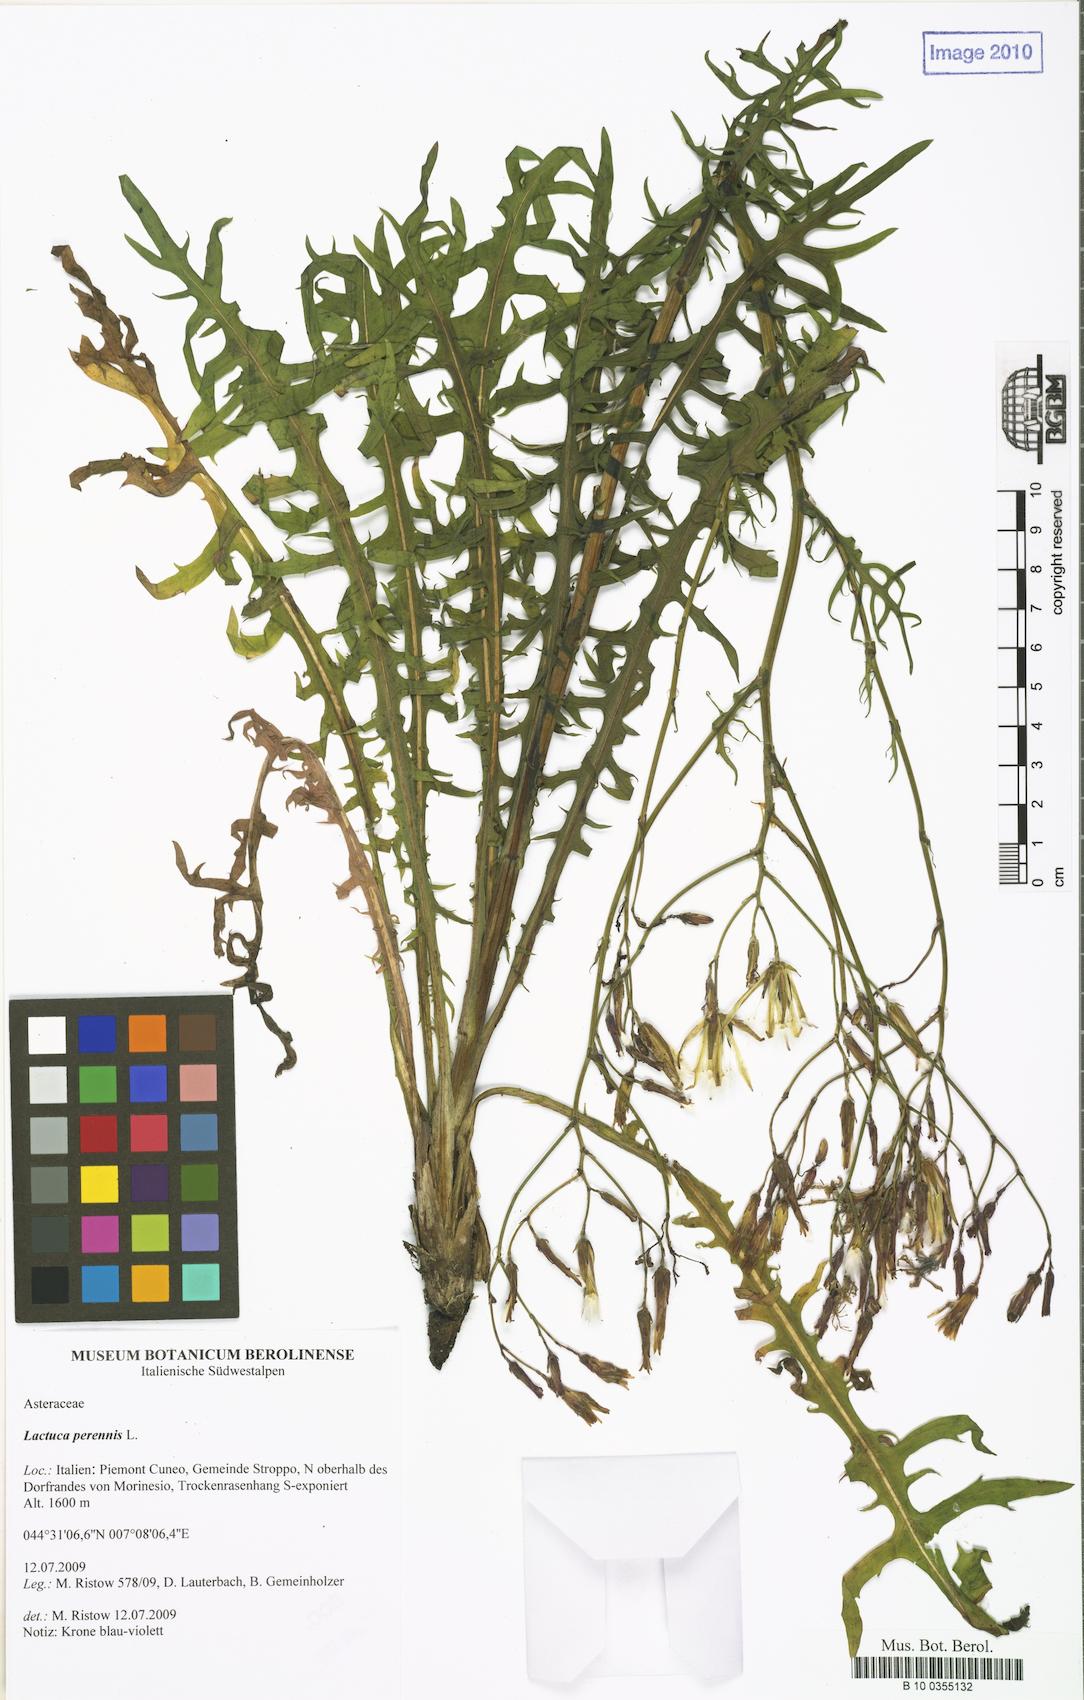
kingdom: Plantae
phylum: Tracheophyta
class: Magnoliopsida
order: Asterales
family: Asteraceae
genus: Lactuca
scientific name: Lactuca perennis
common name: Mountain lettuce
